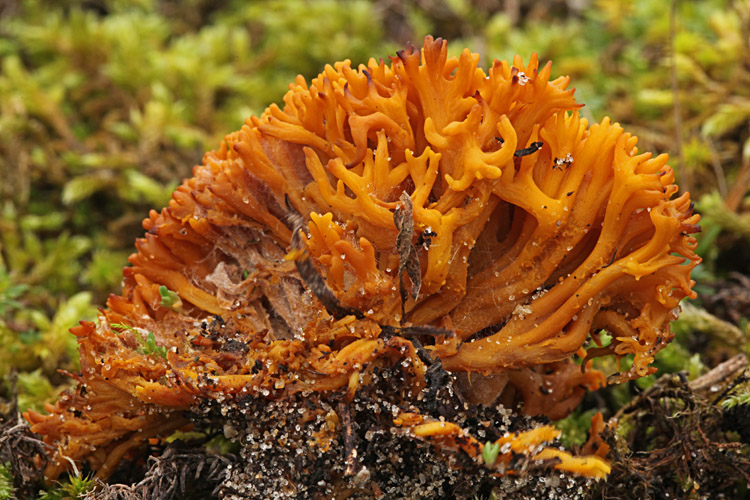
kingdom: Fungi
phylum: Basidiomycota
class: Agaricomycetes
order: Agaricales
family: Clavariaceae
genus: Clavulinopsis
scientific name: Clavulinopsis corniculata
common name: eng-køllesvamp
